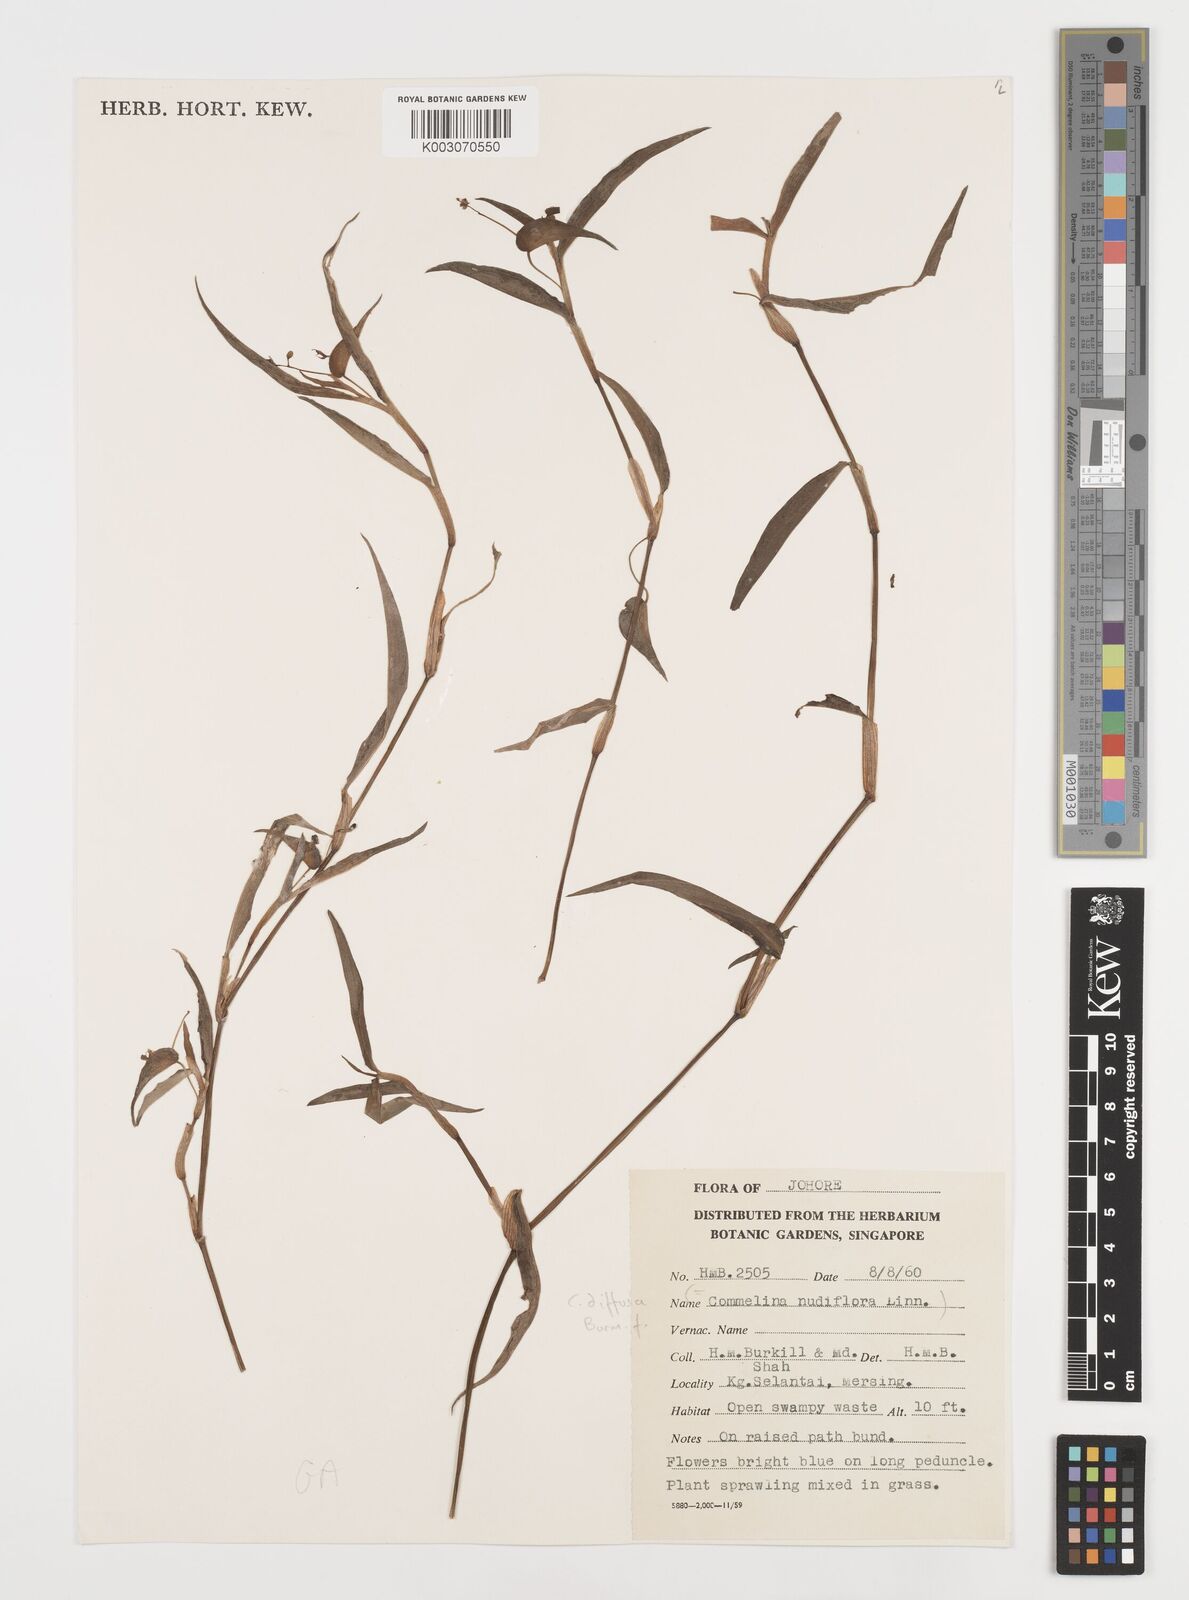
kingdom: Plantae
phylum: Tracheophyta
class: Liliopsida
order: Commelinales
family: Commelinaceae
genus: Commelina
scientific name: Commelina clavata
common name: Willow leaved dayflower
